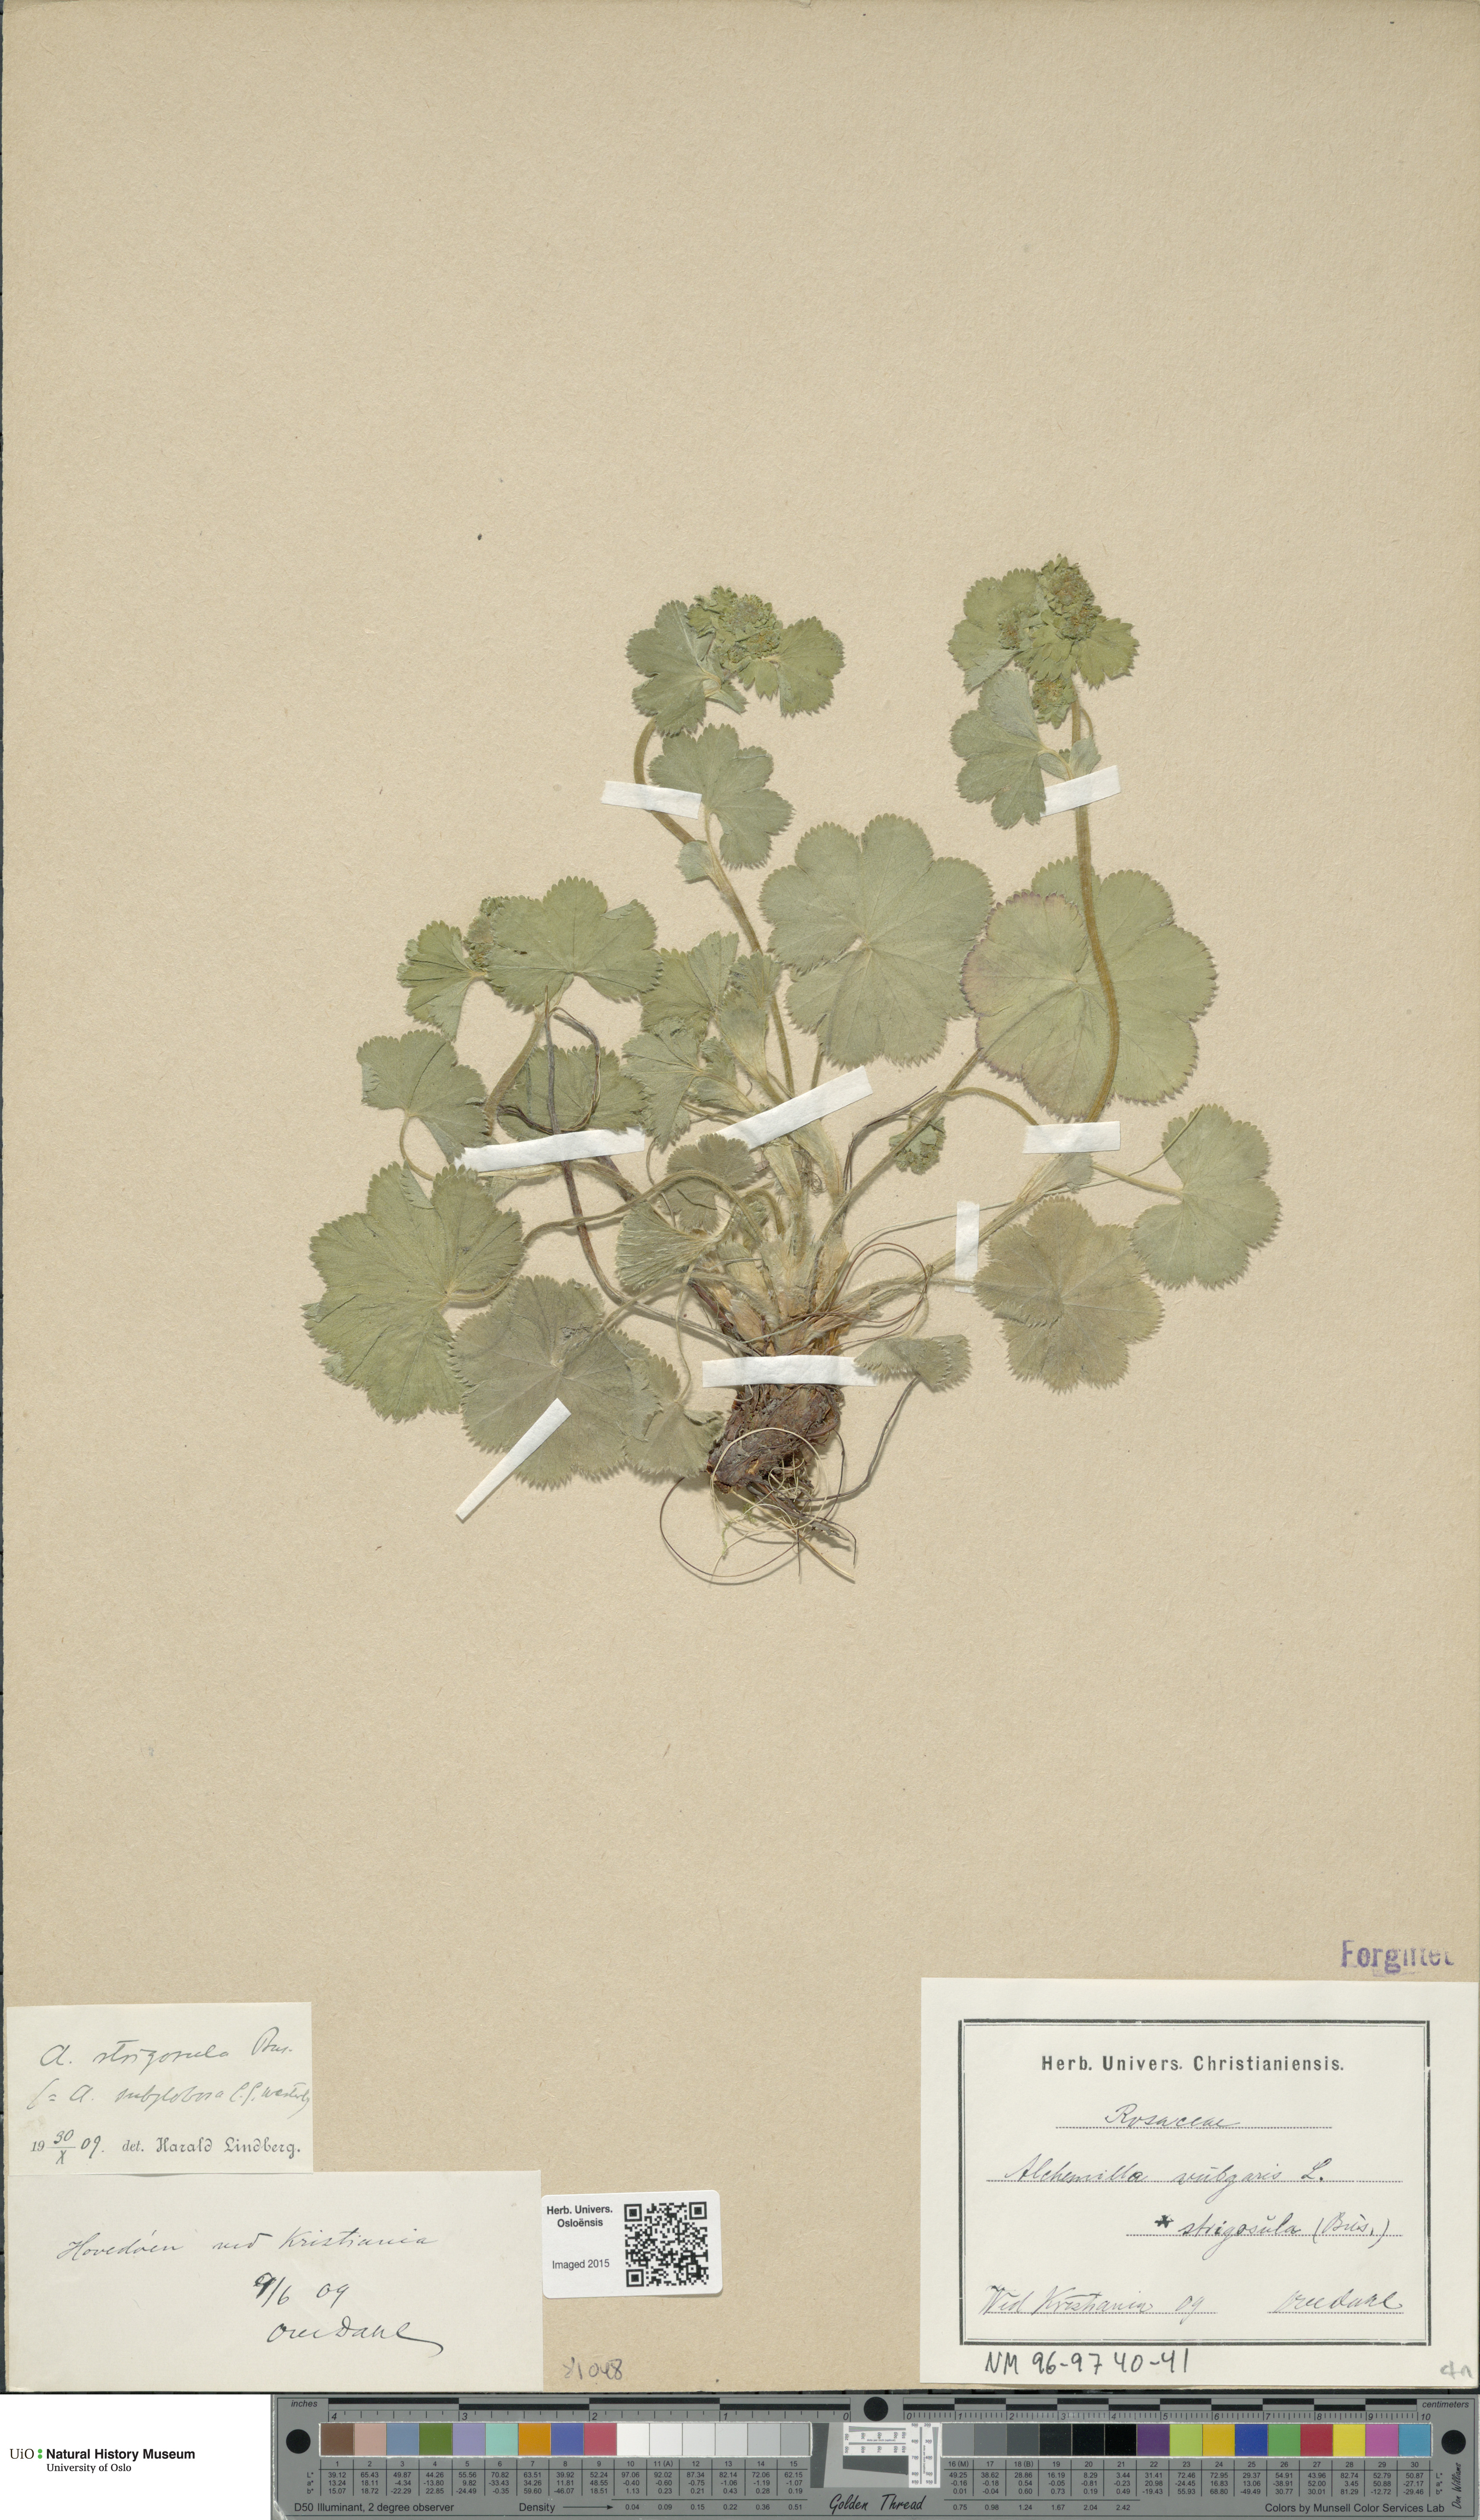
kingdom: Plantae
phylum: Tracheophyta
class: Magnoliopsida
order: Rosales
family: Rosaceae
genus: Alchemilla
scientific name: Alchemilla strigosula
